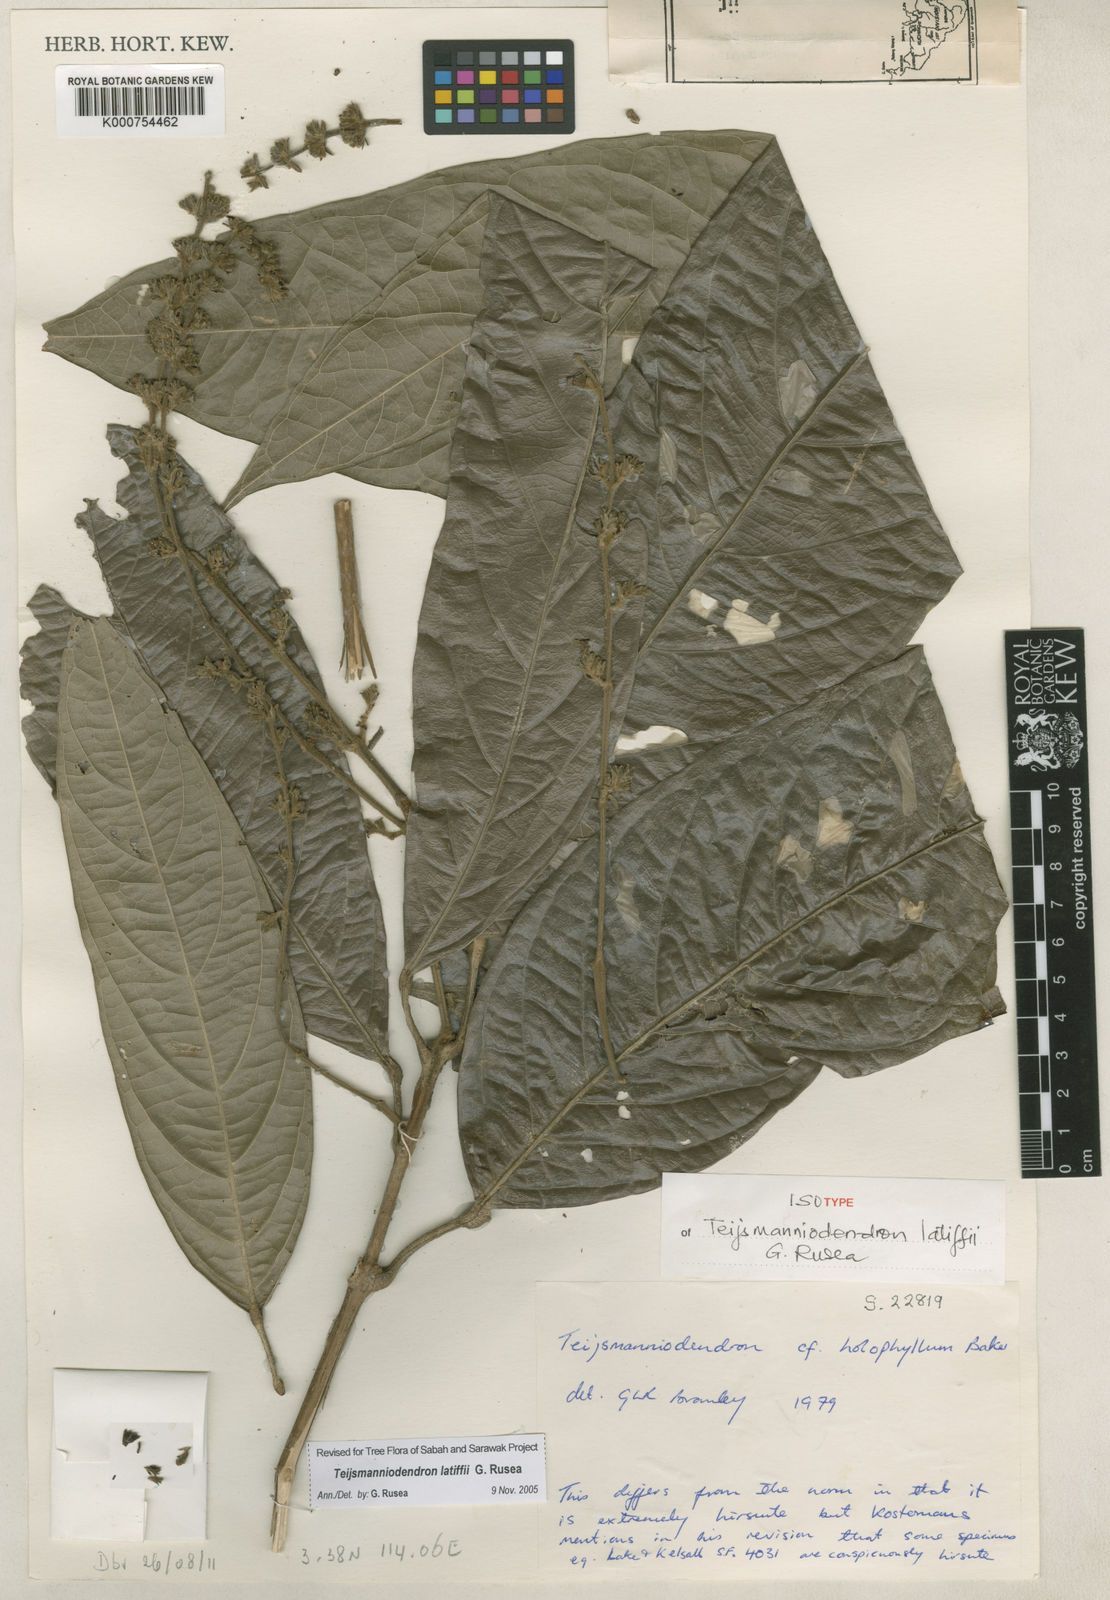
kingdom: Plantae
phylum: Tracheophyta
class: Magnoliopsida
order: Lamiales
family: Lamiaceae
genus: Teijsmanniodendron
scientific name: Teijsmanniodendron latiffii
